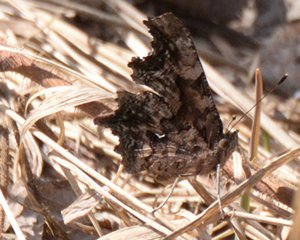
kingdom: Animalia
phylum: Arthropoda
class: Insecta
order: Lepidoptera
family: Nymphalidae
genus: Polygonia
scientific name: Polygonia faunus
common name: Green Comma
